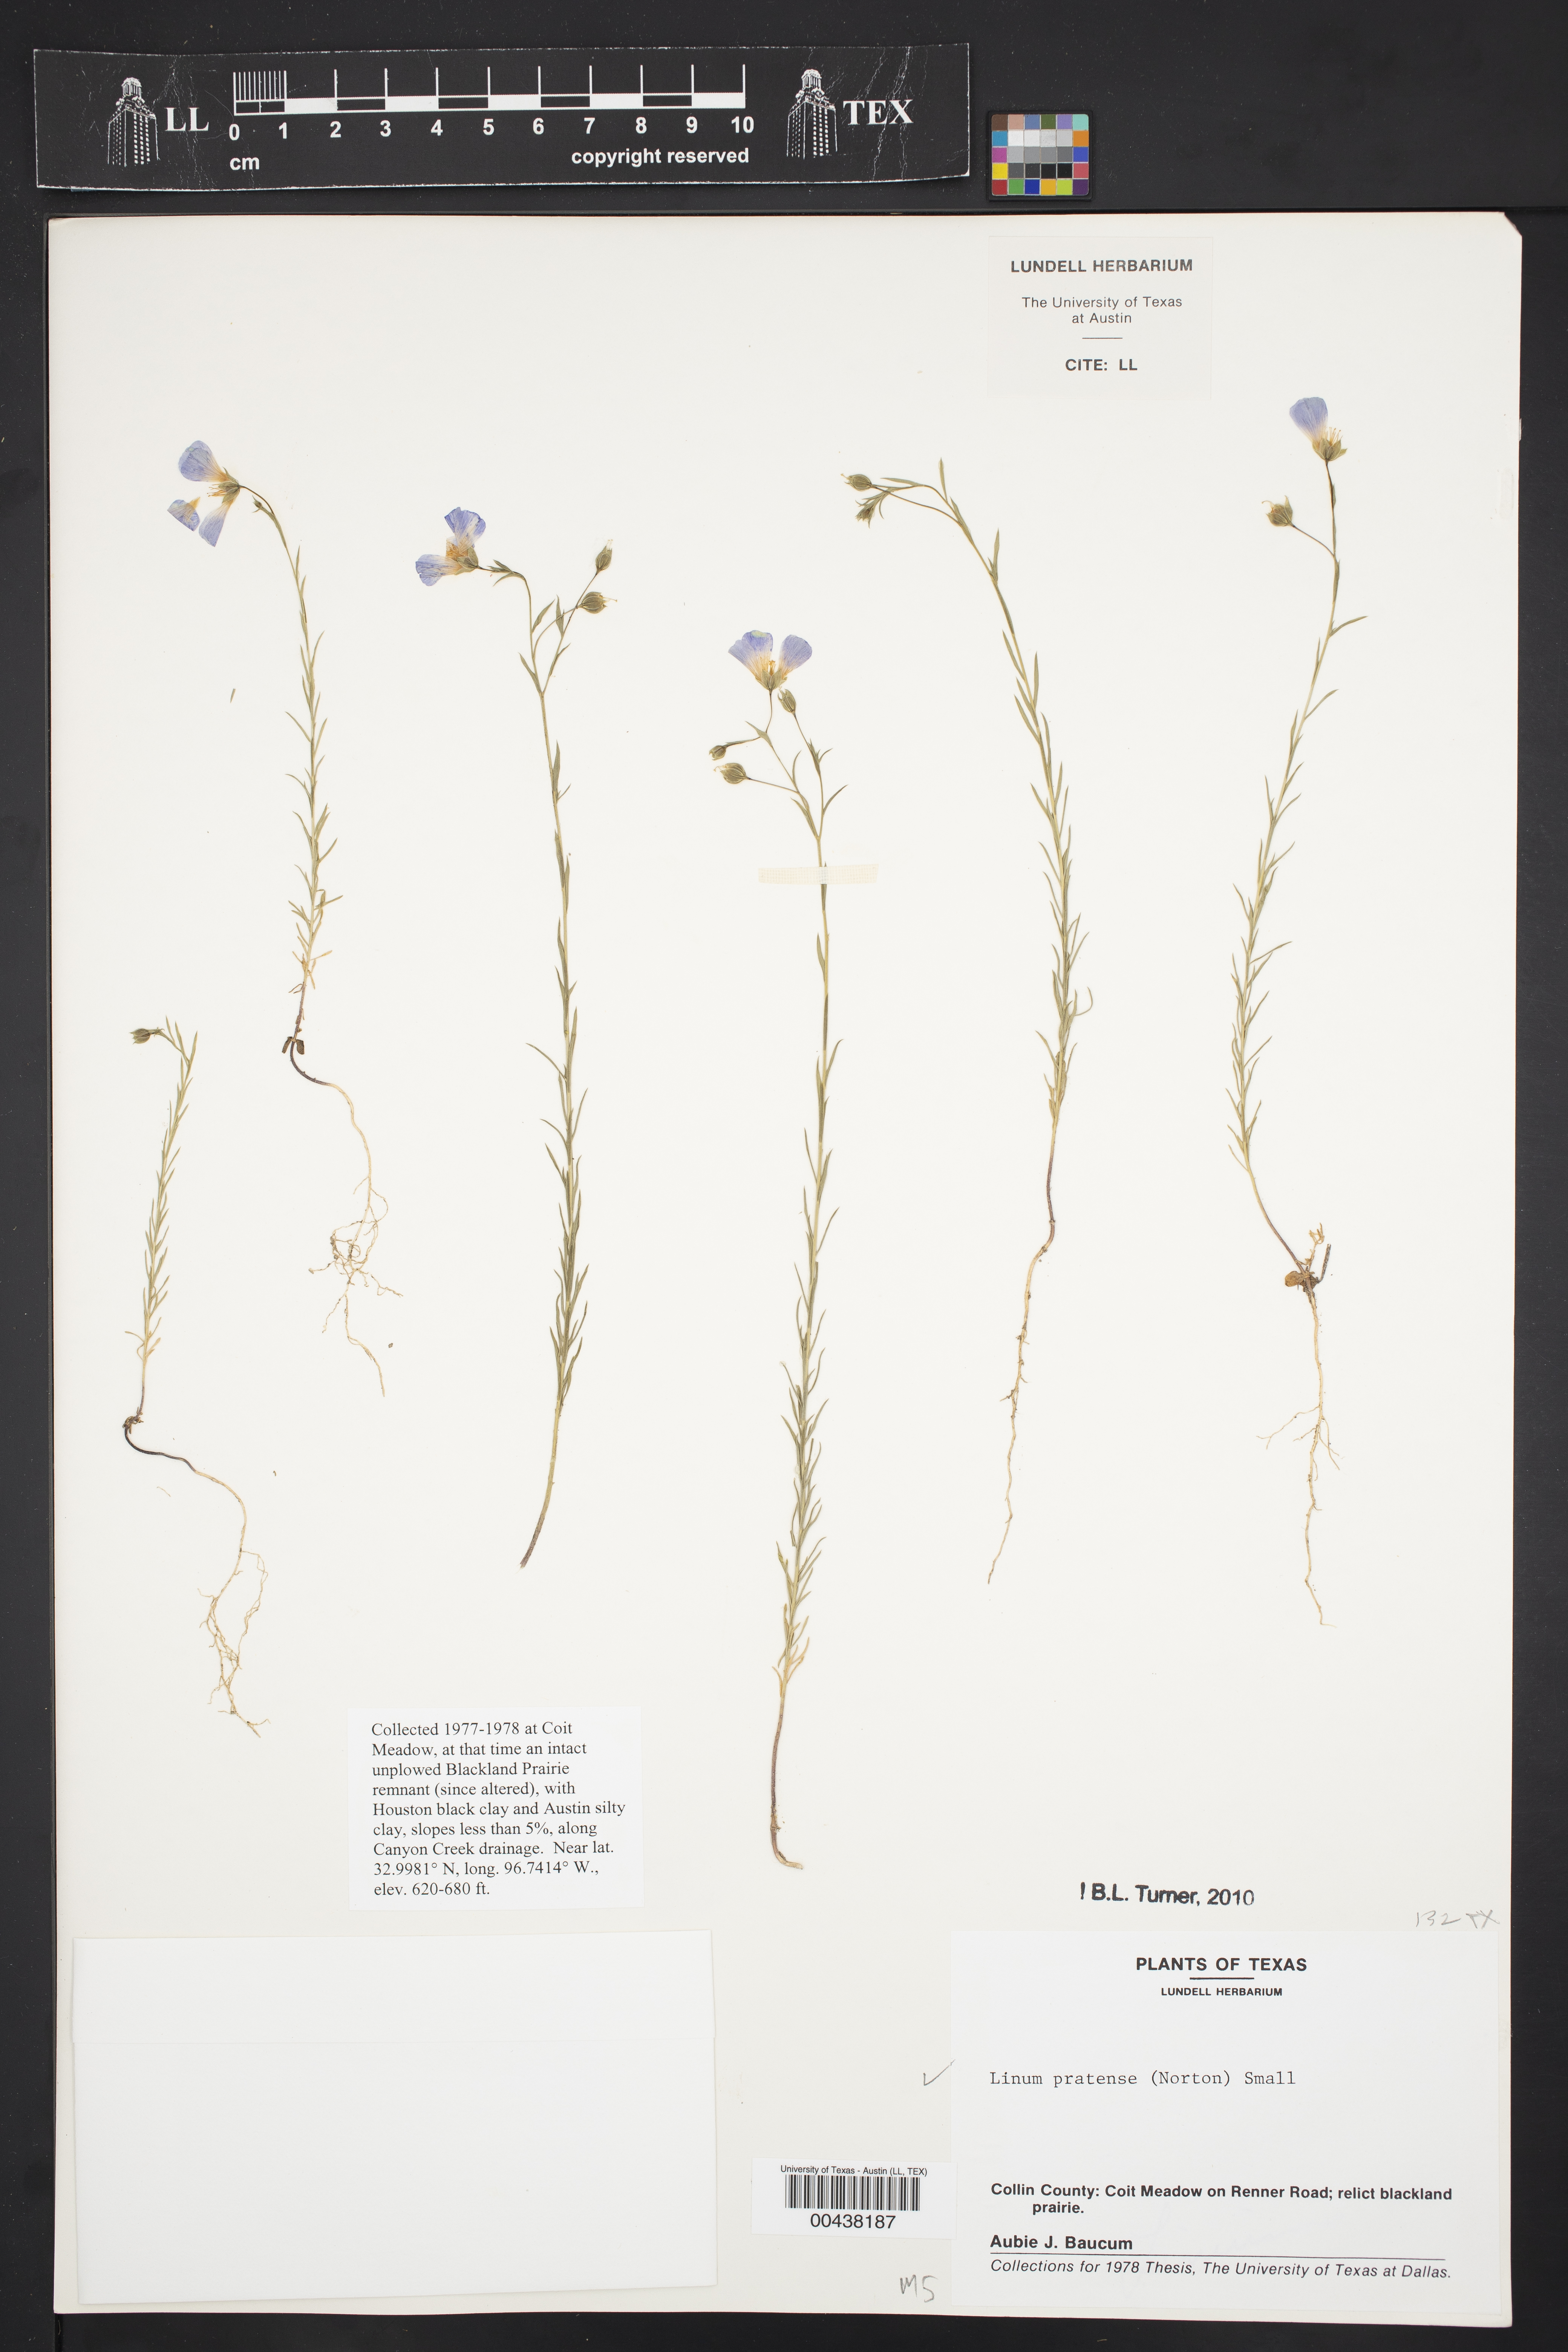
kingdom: Plantae
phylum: Tracheophyta
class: Magnoliopsida
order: Malpighiales
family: Linaceae
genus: Linum
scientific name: Linum pratense
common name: Norton's flax
